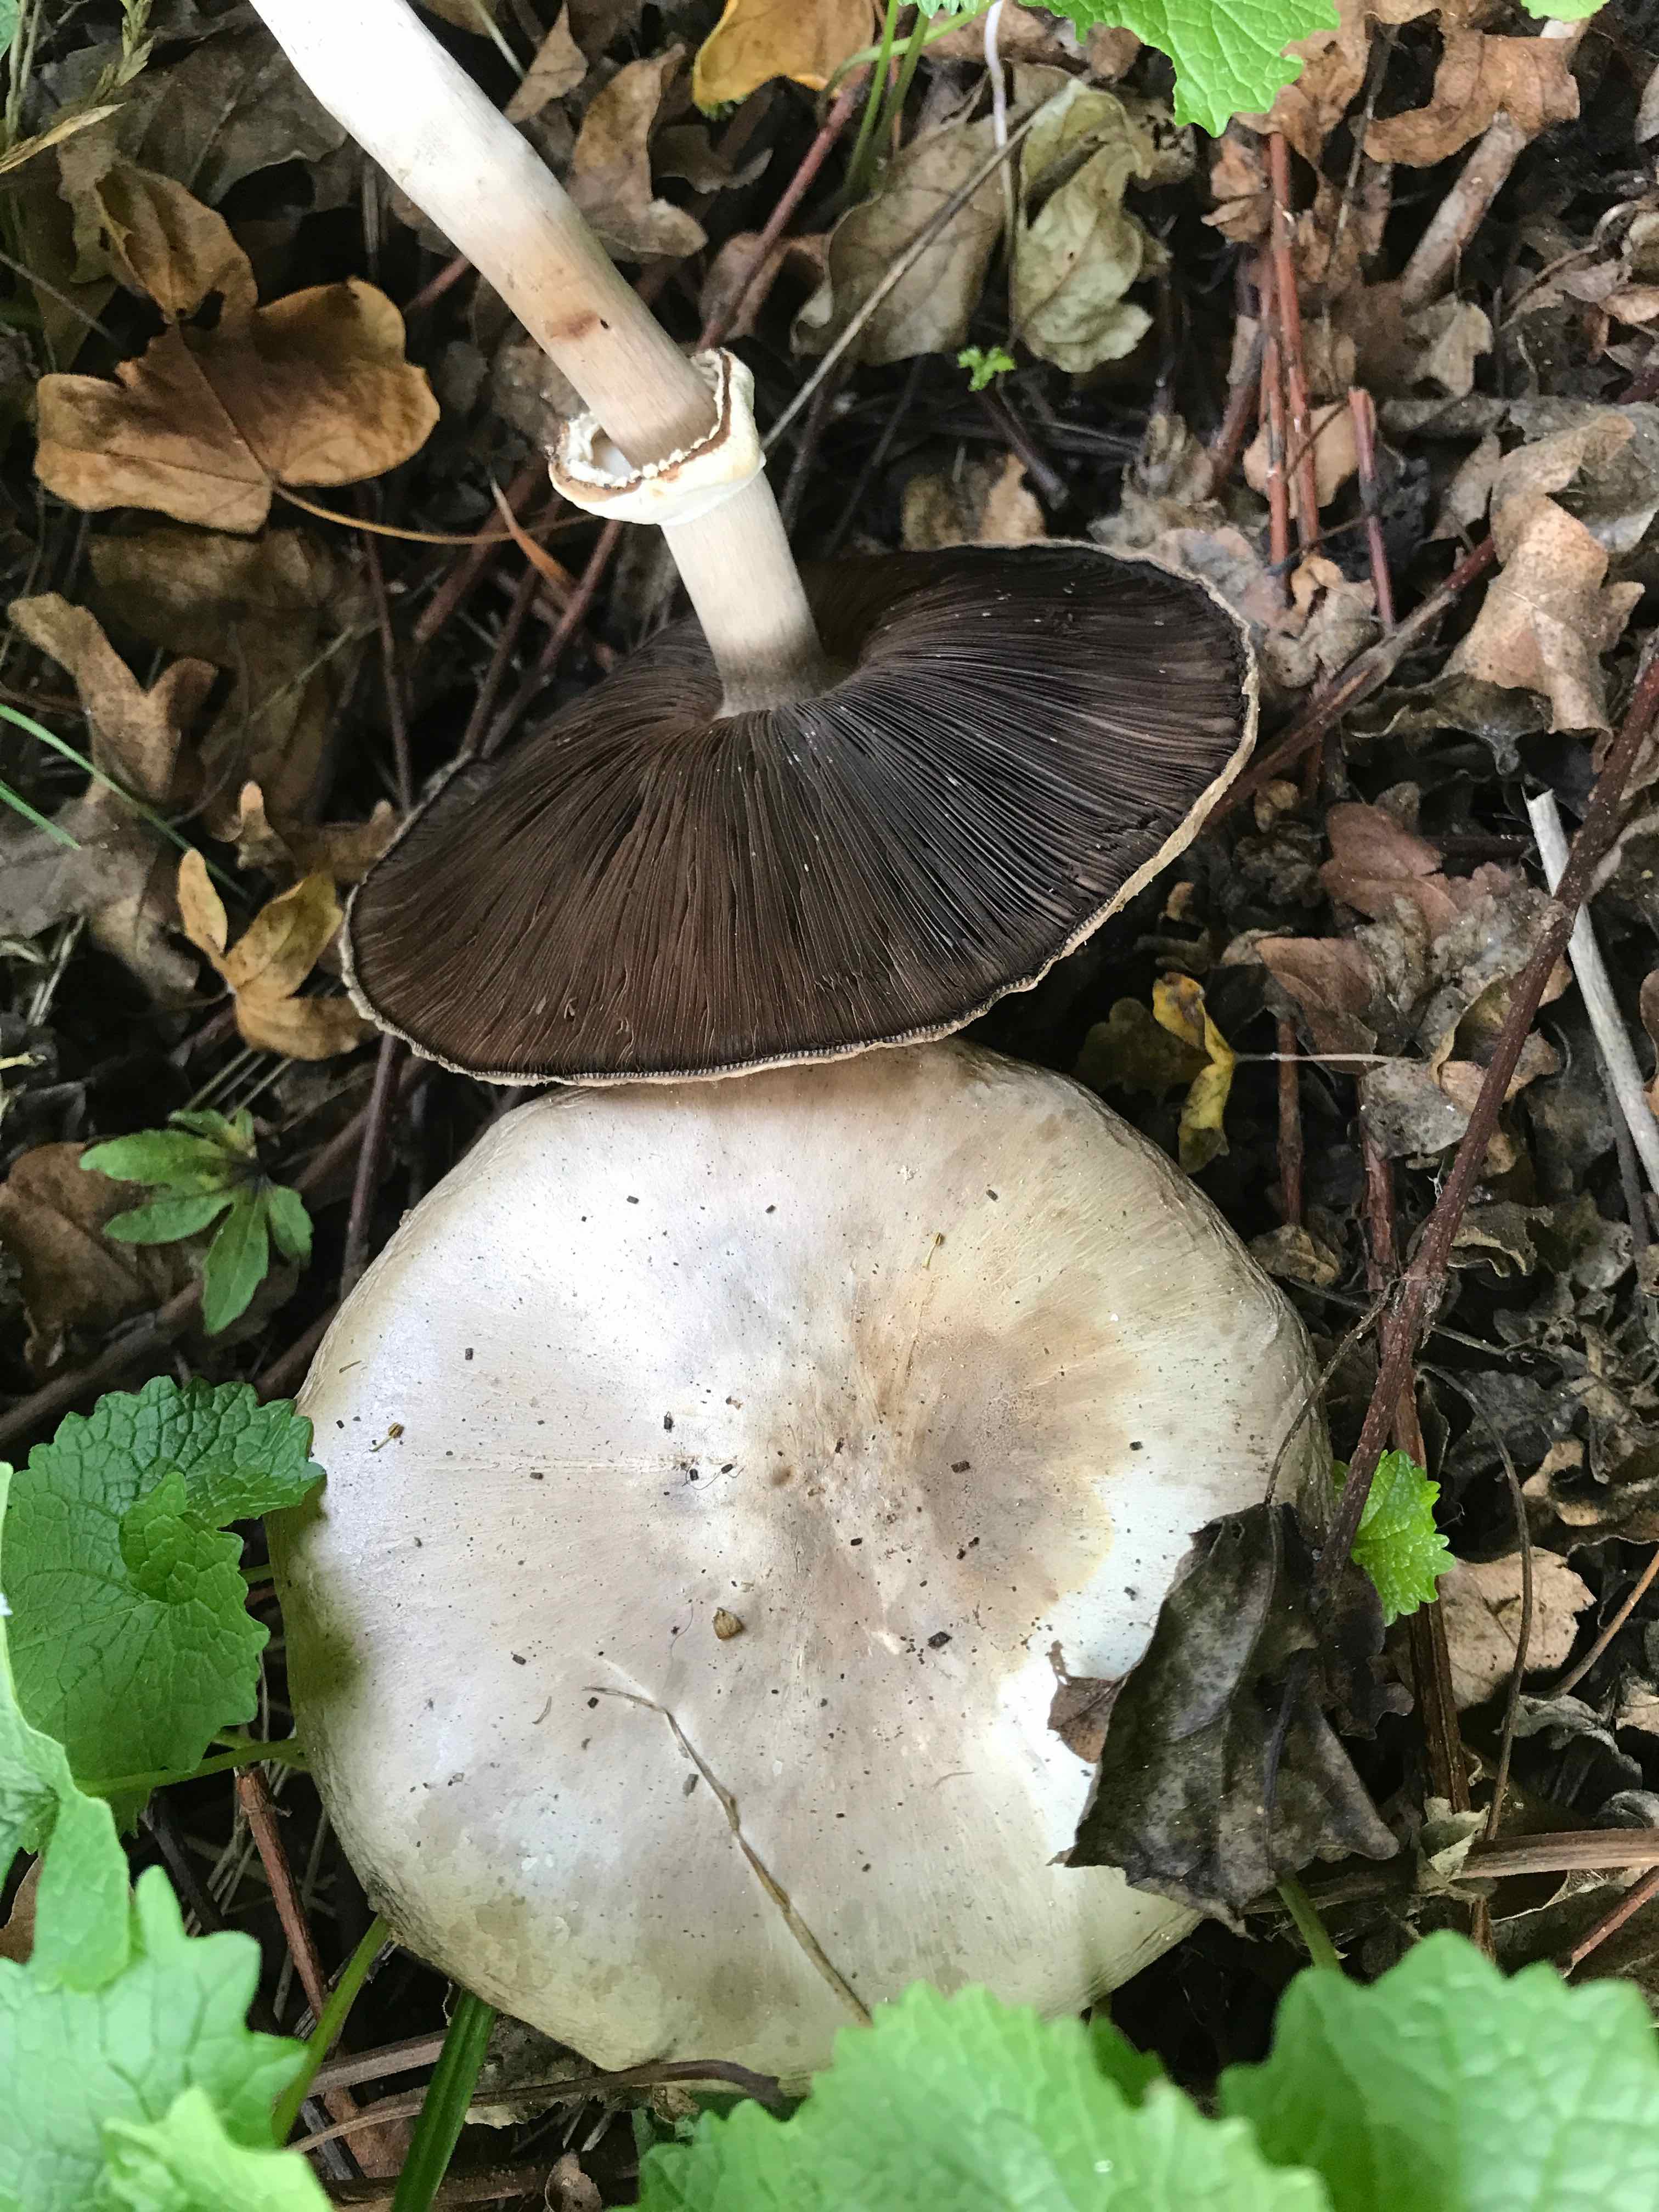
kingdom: Fungi
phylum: Basidiomycota
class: Agaricomycetes
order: Agaricales
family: Agaricaceae
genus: Agaricus
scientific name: Agaricus
